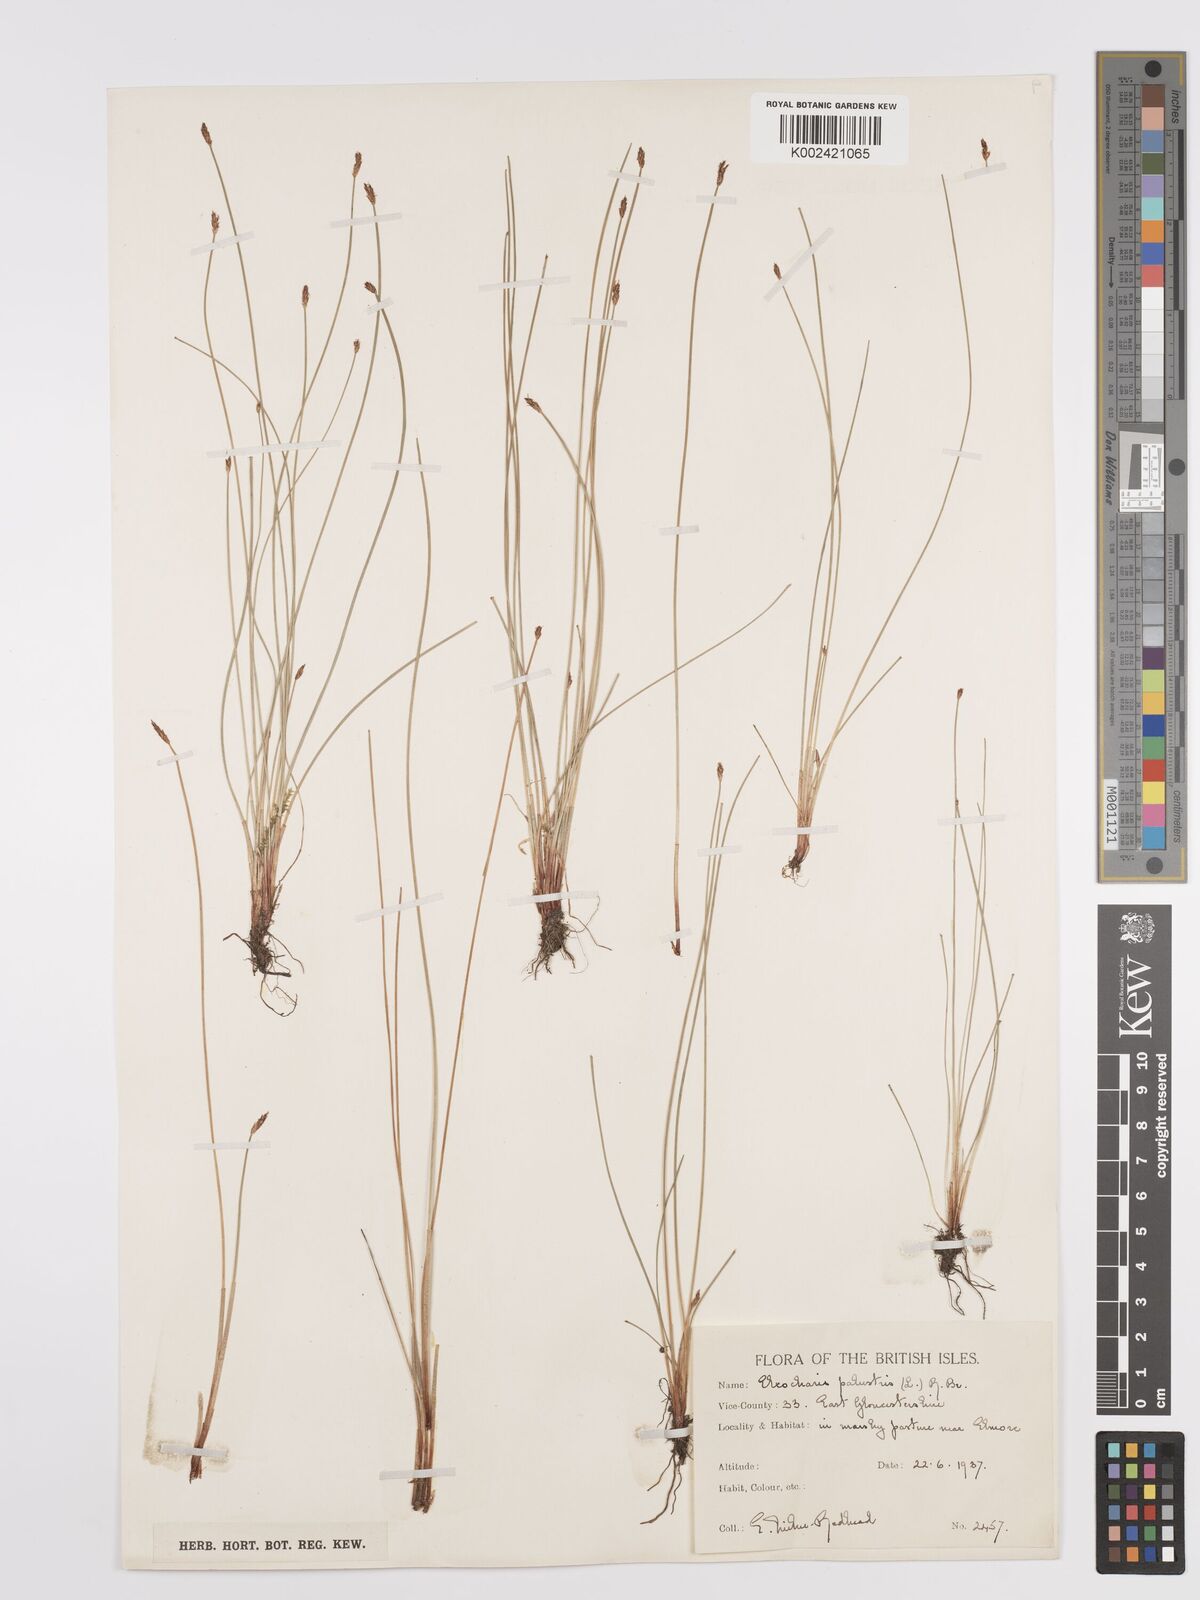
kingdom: Plantae
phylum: Tracheophyta
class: Liliopsida
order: Poales
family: Cyperaceae
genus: Eleocharis
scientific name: Eleocharis palustris
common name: Common spike-rush
